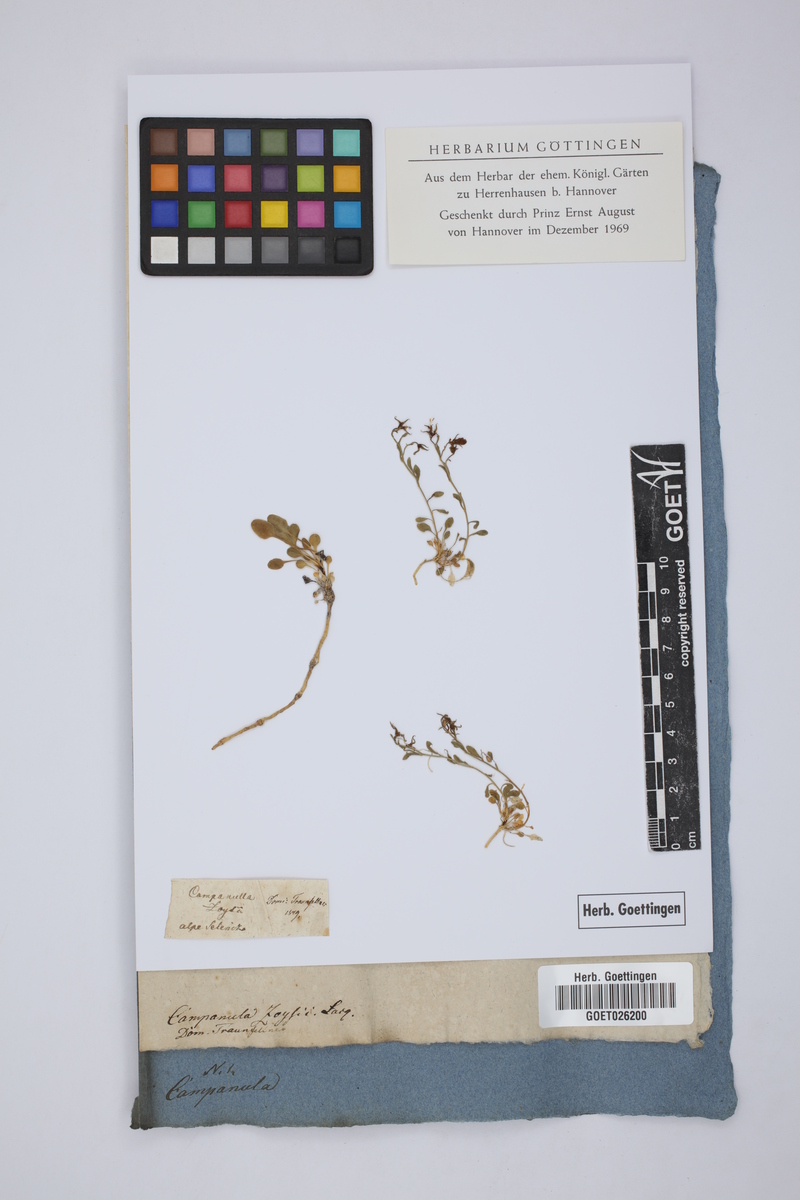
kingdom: Plantae
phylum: Tracheophyta
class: Magnoliopsida
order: Asterales
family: Campanulaceae
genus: Favratia
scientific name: Favratia zoysii
